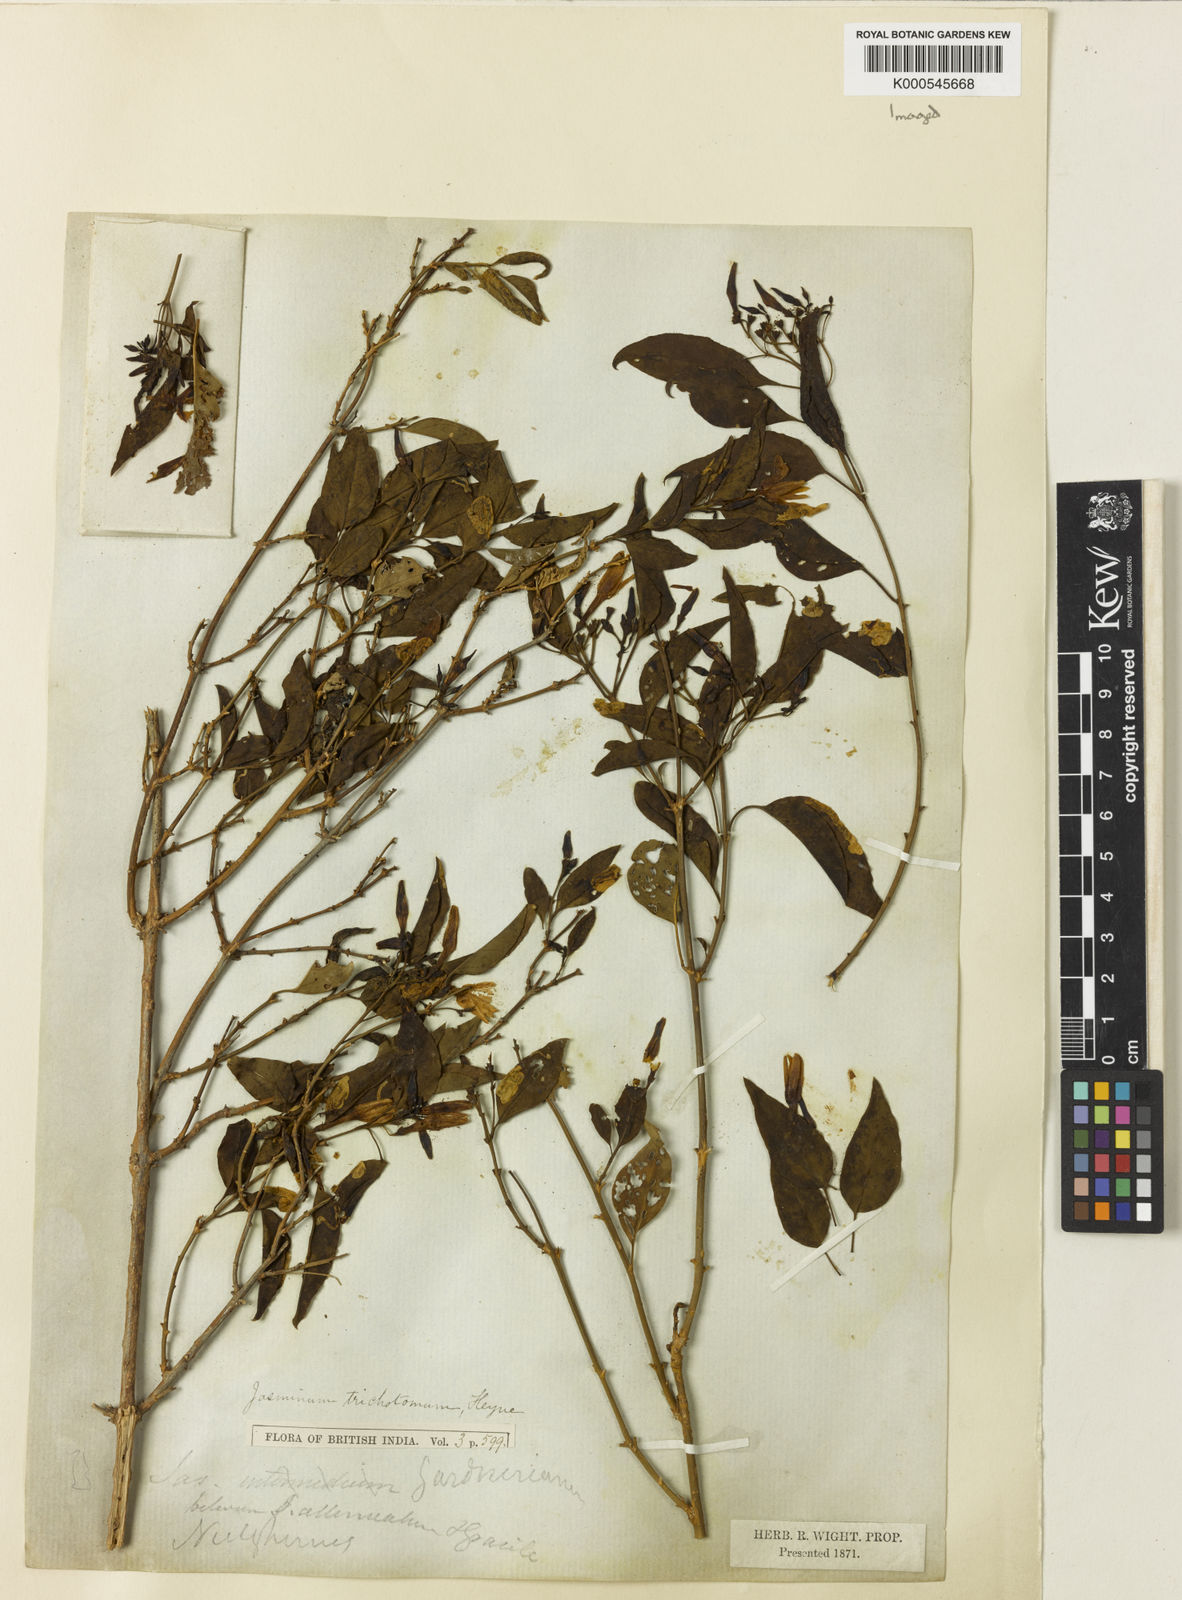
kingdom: Plantae
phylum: Tracheophyta
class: Magnoliopsida
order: Lamiales
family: Oleaceae
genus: Jasminum
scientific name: Jasminum trichotomum
